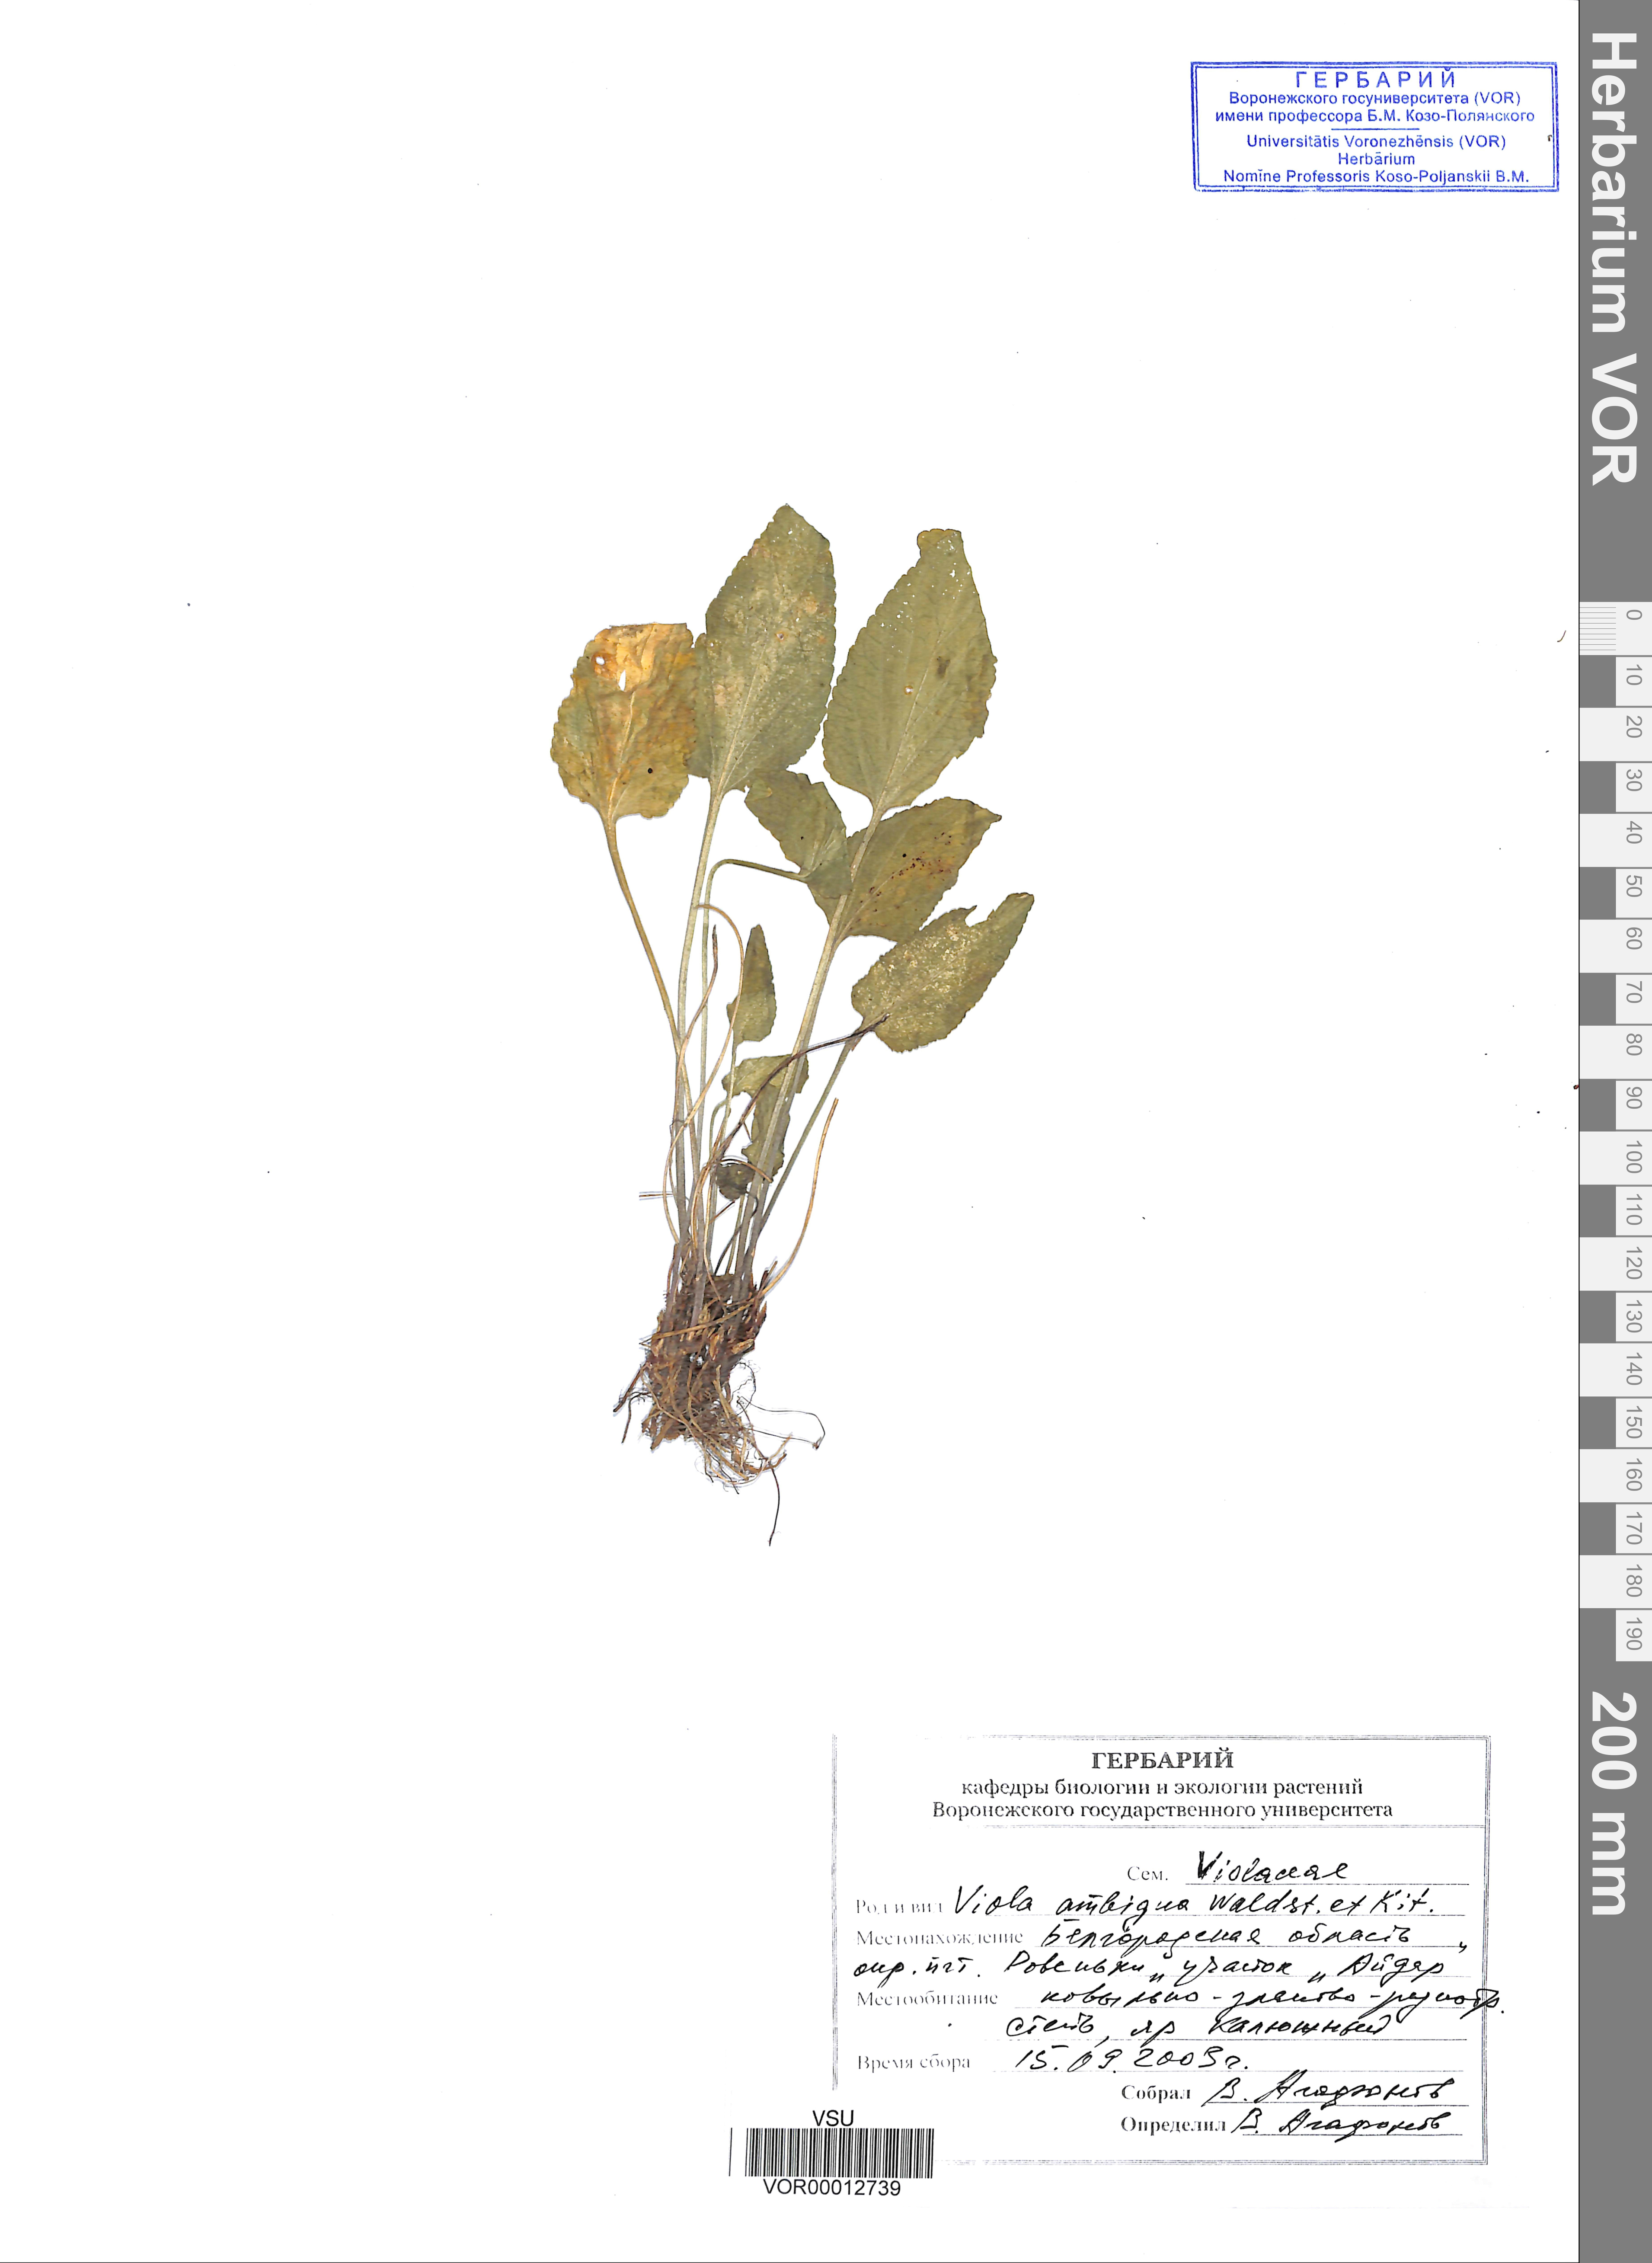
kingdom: Plantae
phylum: Tracheophyta
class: Magnoliopsida
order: Malpighiales
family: Violaceae
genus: Viola
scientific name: Viola ambigua
